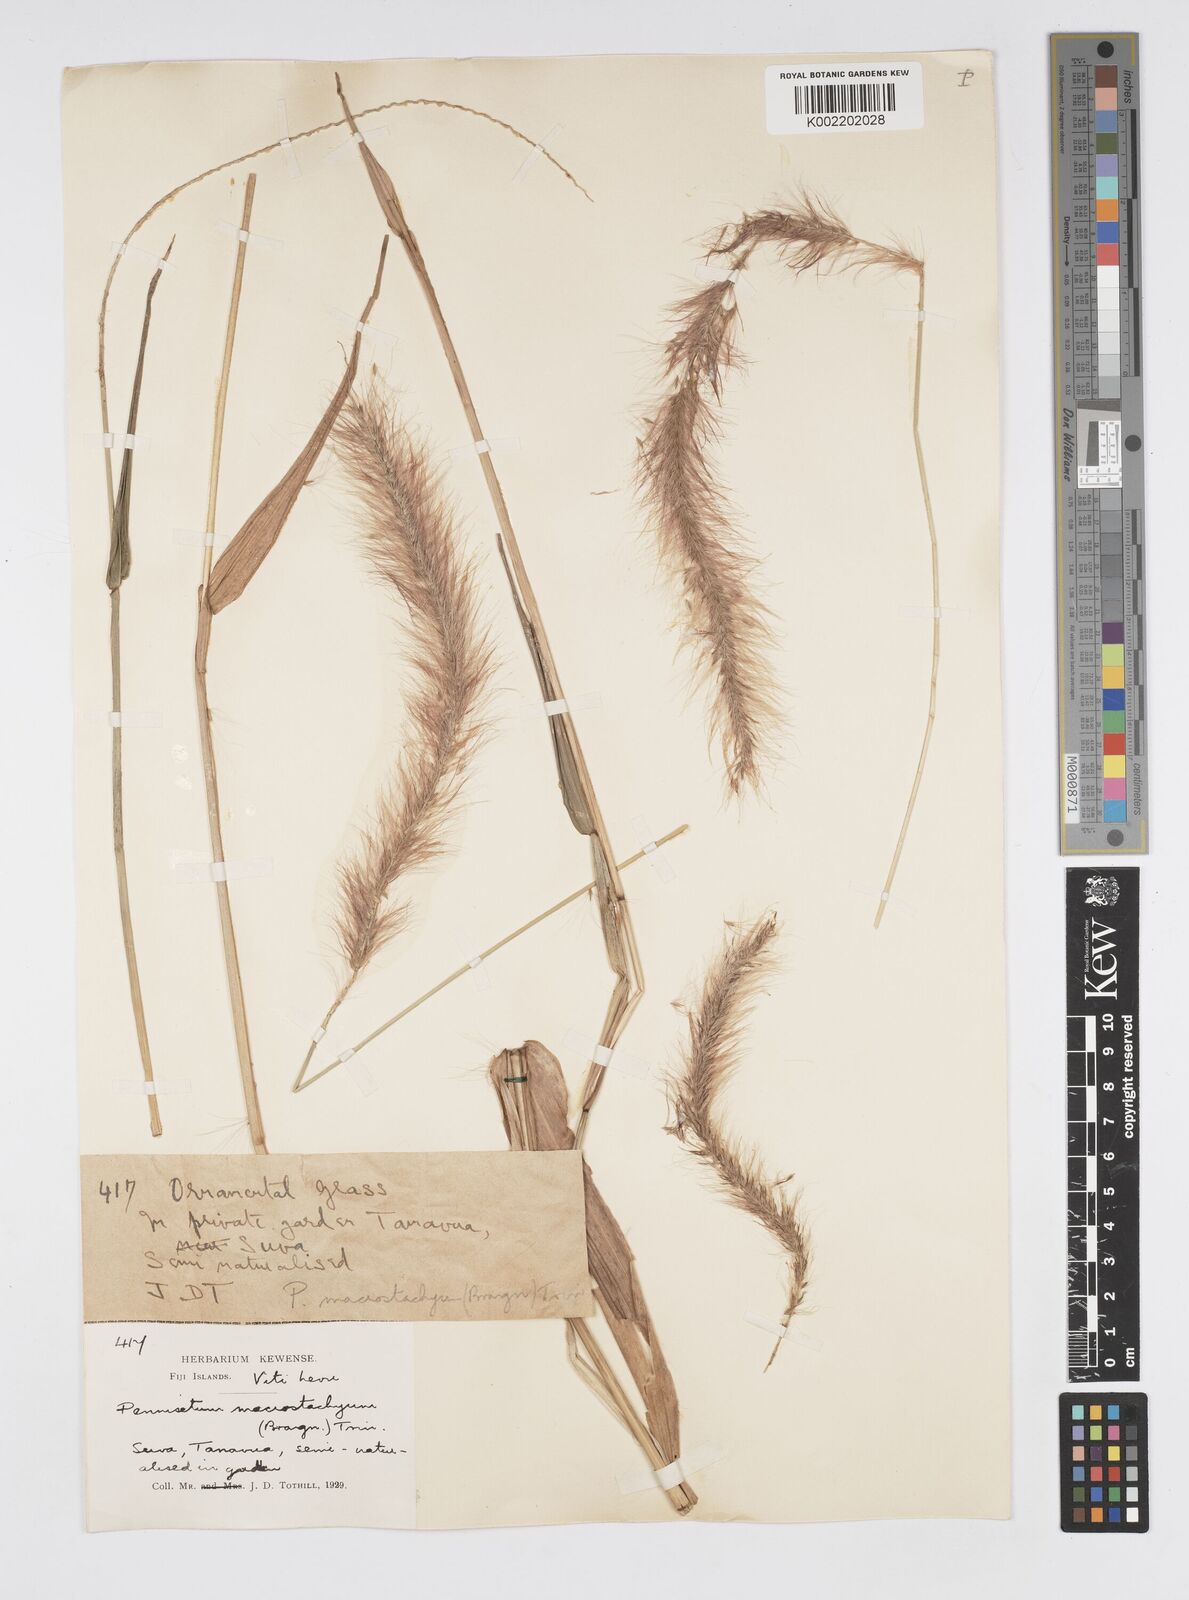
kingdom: Plantae
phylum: Tracheophyta
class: Liliopsida
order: Poales
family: Poaceae
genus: Cenchrus
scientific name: Cenchrus purpureus
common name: Elephant grass
